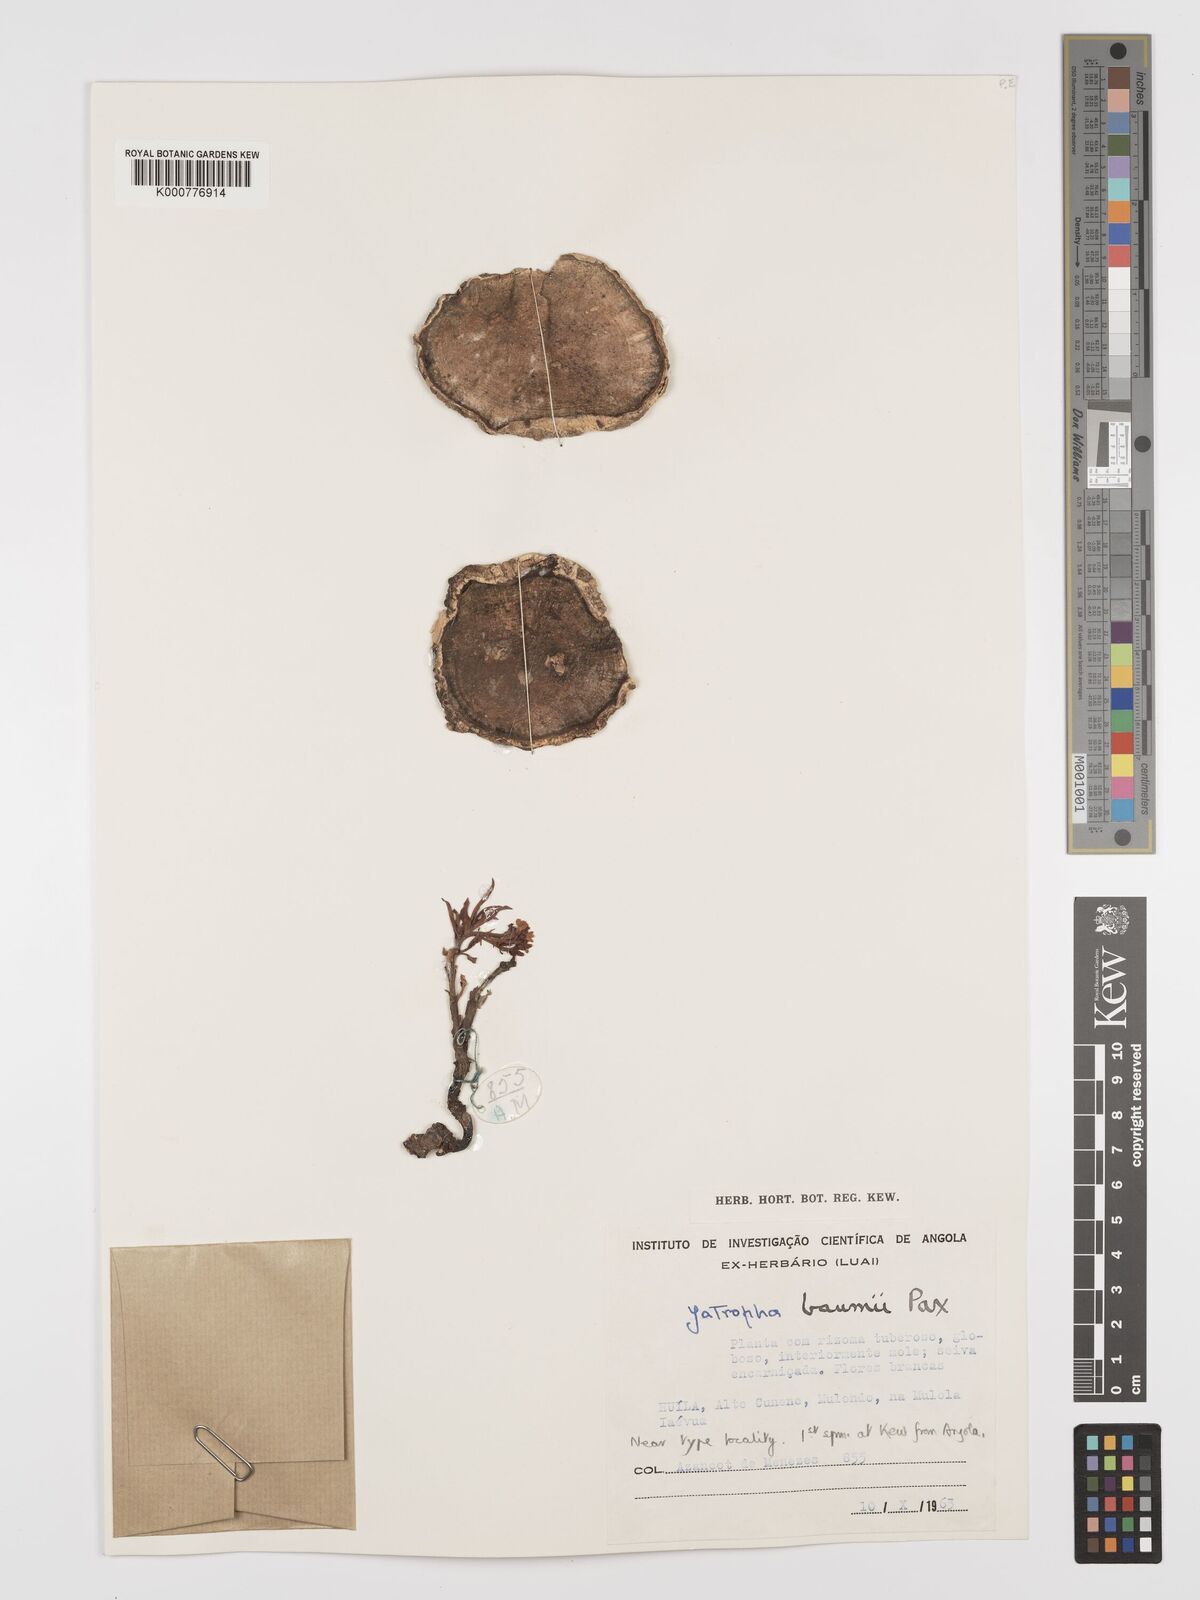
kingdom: Plantae
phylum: Tracheophyta
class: Magnoliopsida
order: Malpighiales
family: Euphorbiaceae
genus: Jatropha
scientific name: Jatropha baumii
